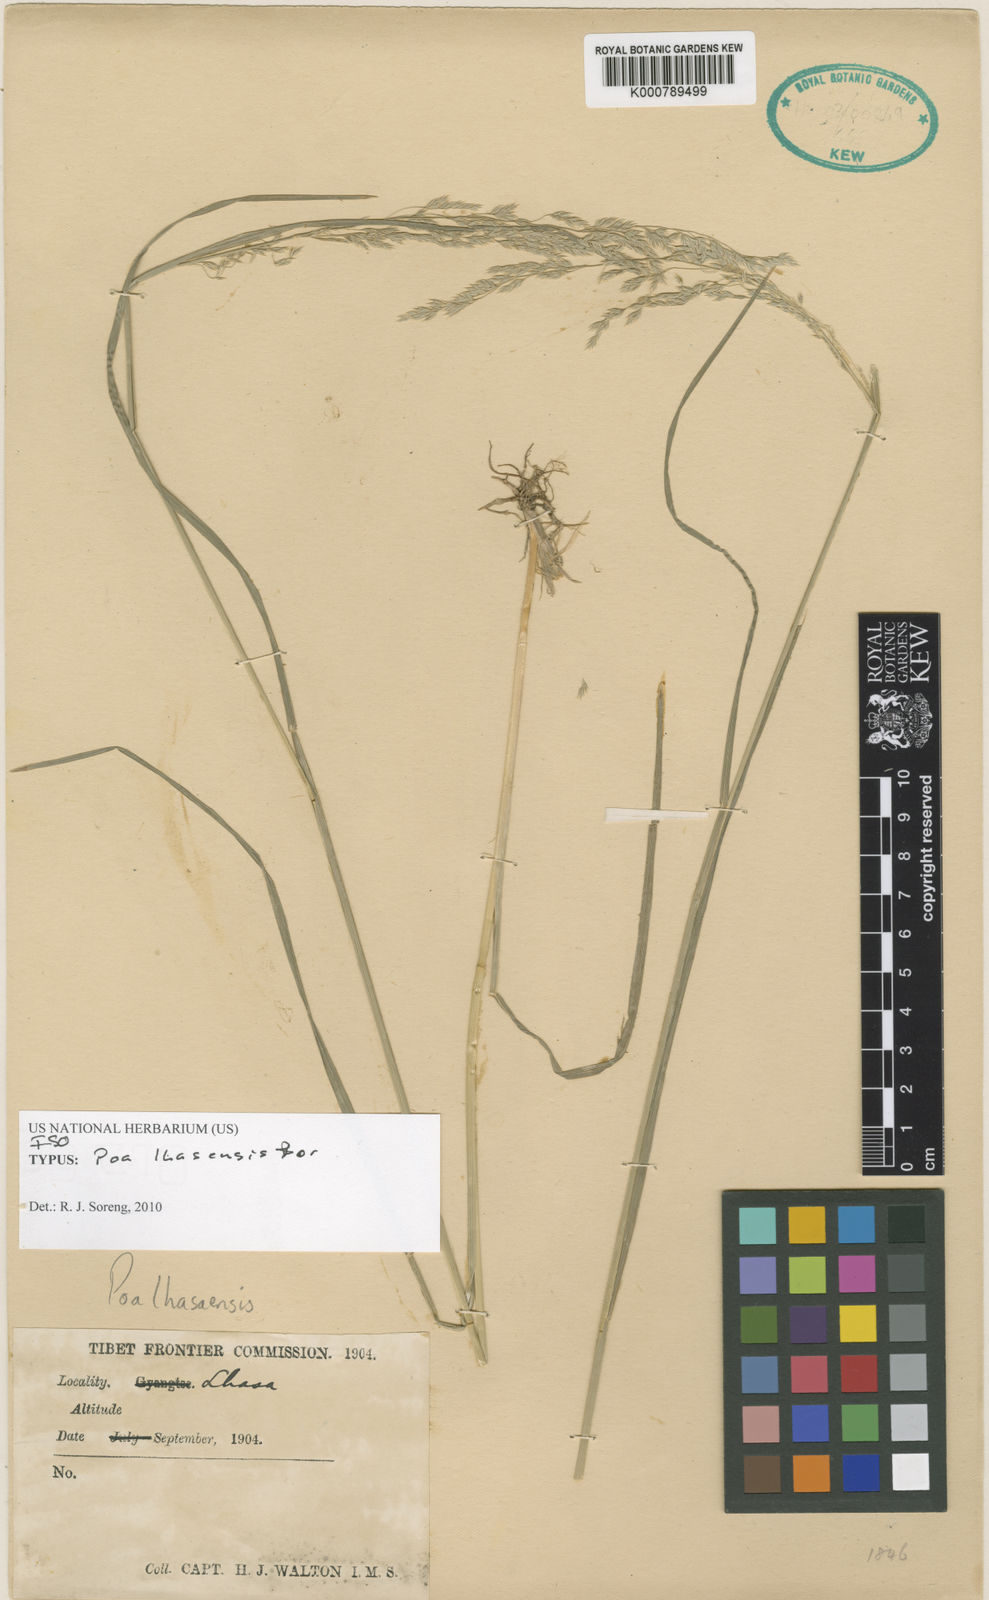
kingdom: Plantae
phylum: Tracheophyta
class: Liliopsida
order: Poales
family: Poaceae
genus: Poa
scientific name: Poa lhasaensis
